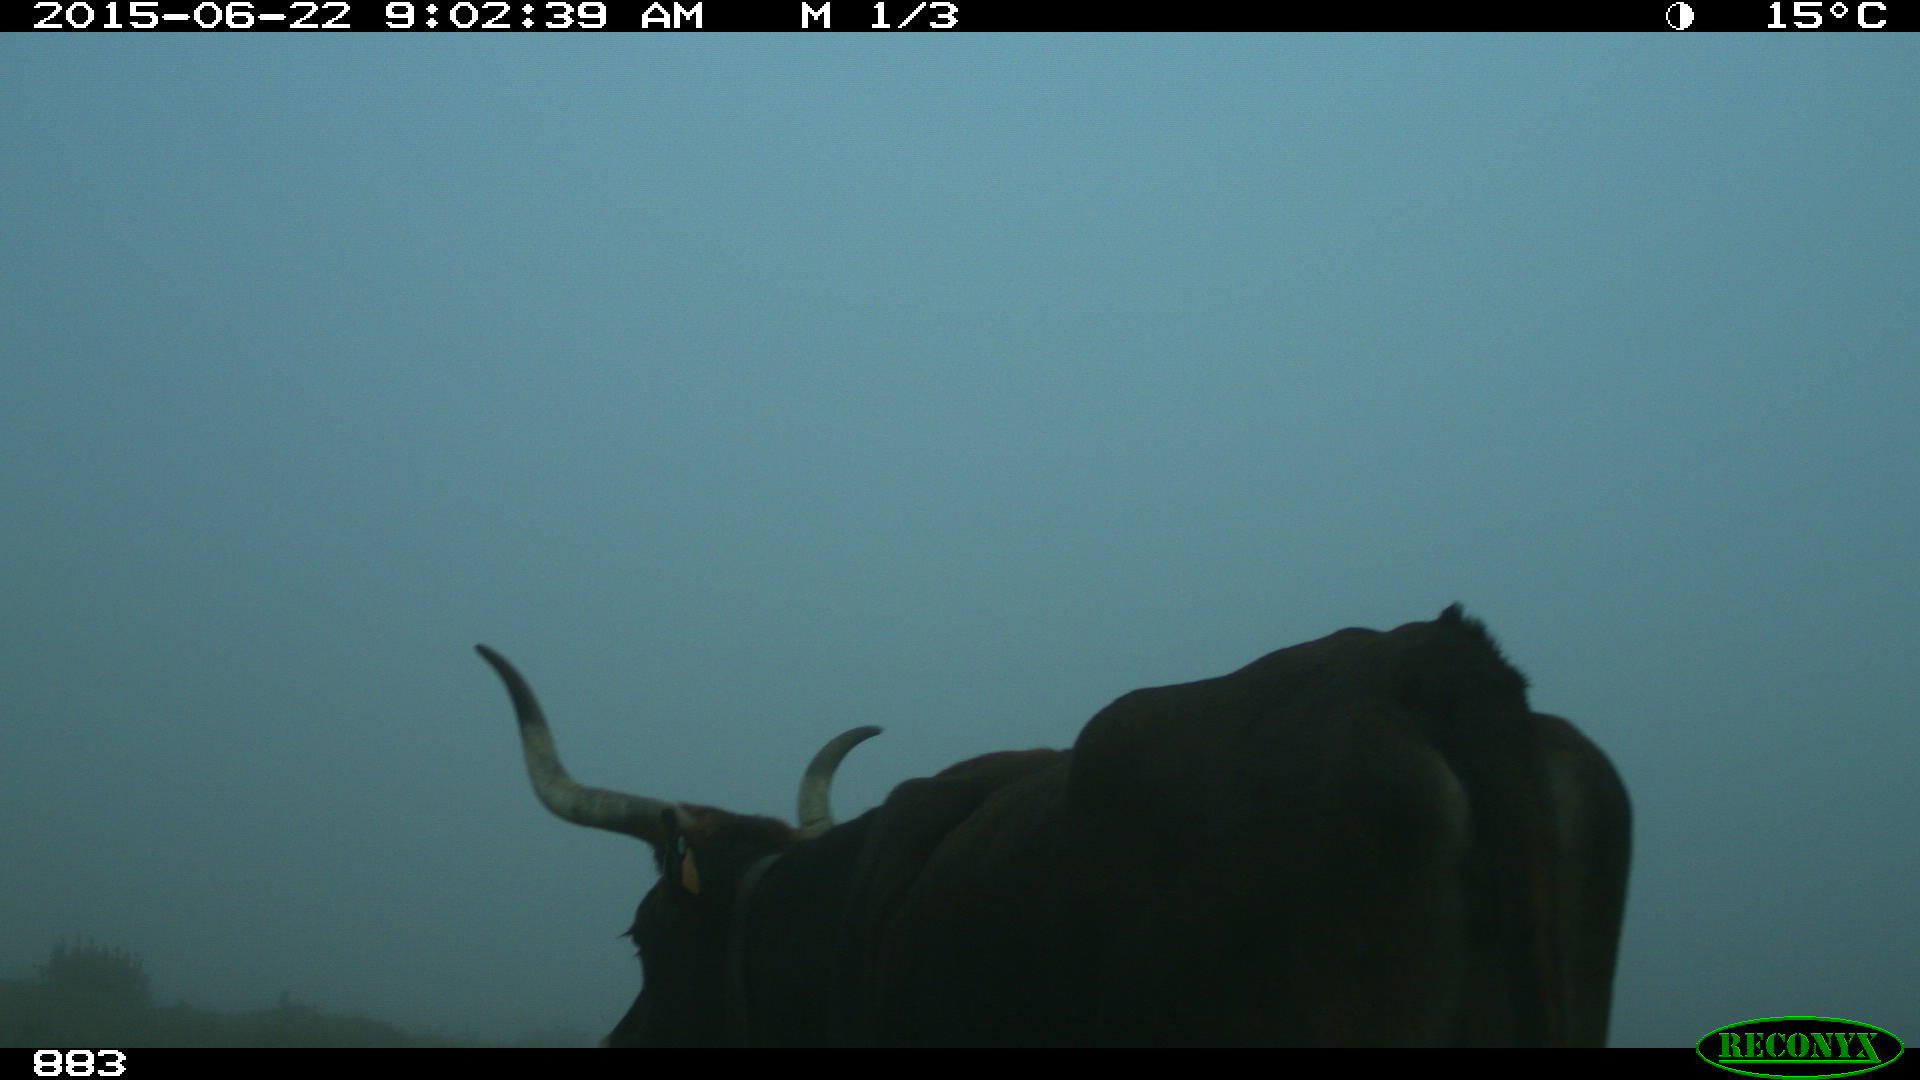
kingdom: Animalia
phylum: Chordata
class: Mammalia
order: Artiodactyla
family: Bovidae
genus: Bos
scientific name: Bos taurus
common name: Domesticated cattle
